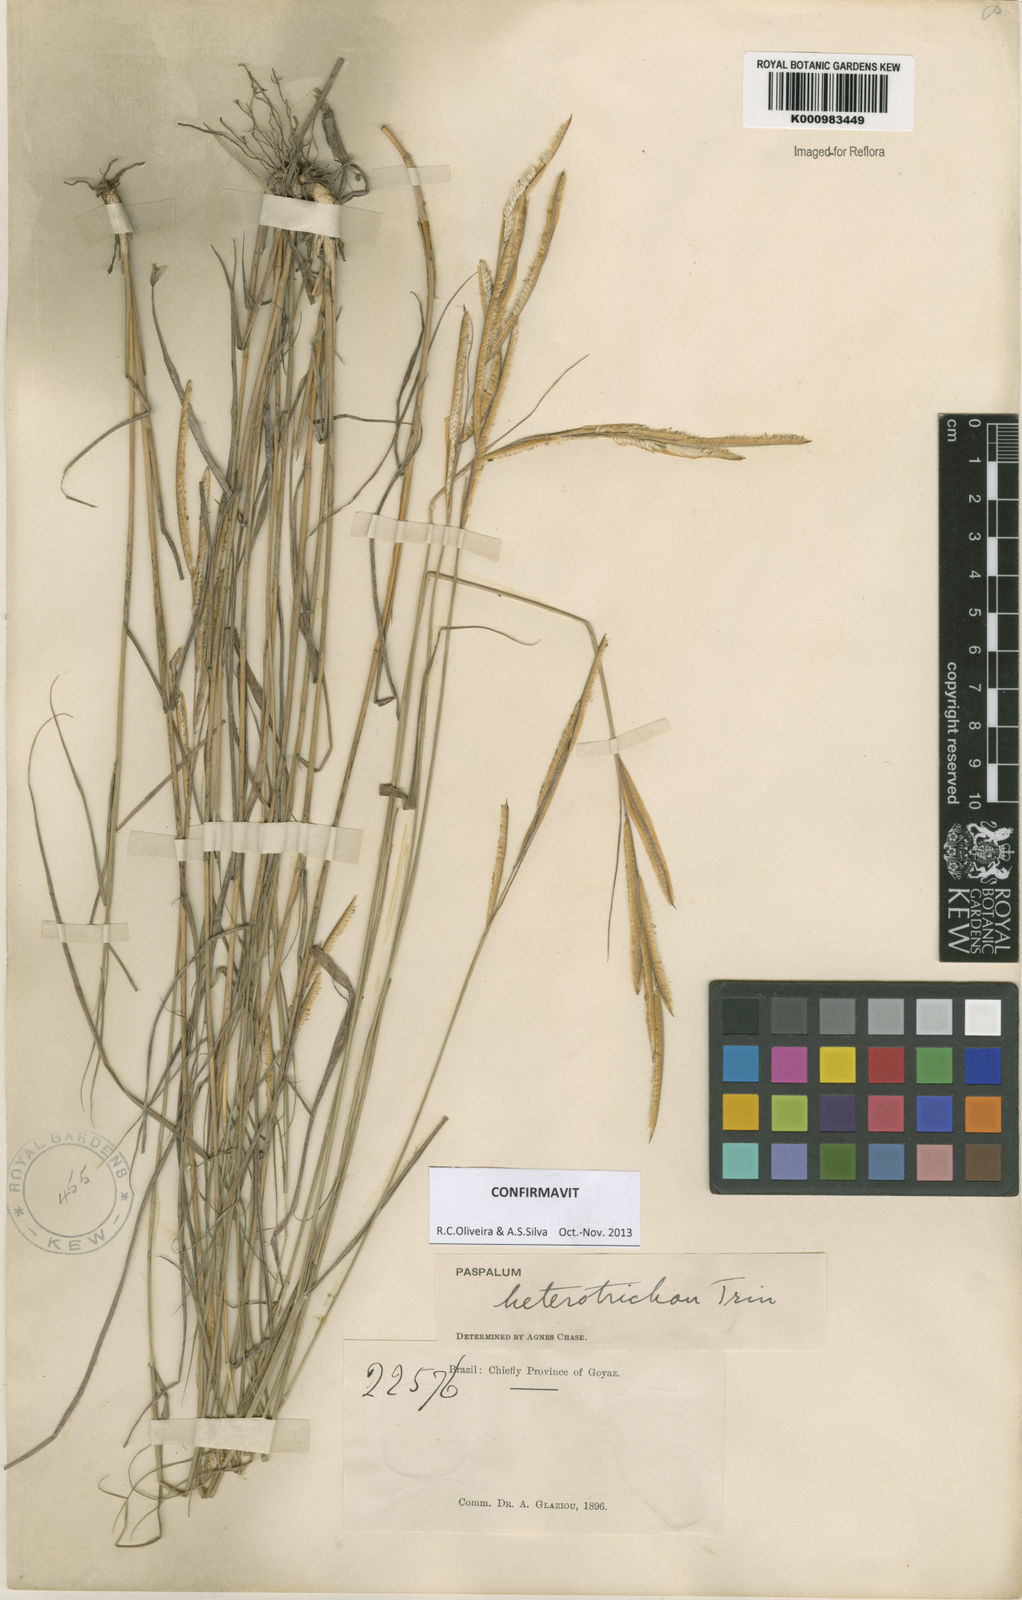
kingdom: Plantae
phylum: Tracheophyta
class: Liliopsida
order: Poales
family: Poaceae
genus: Paspalum
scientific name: Paspalum heterotrichon
